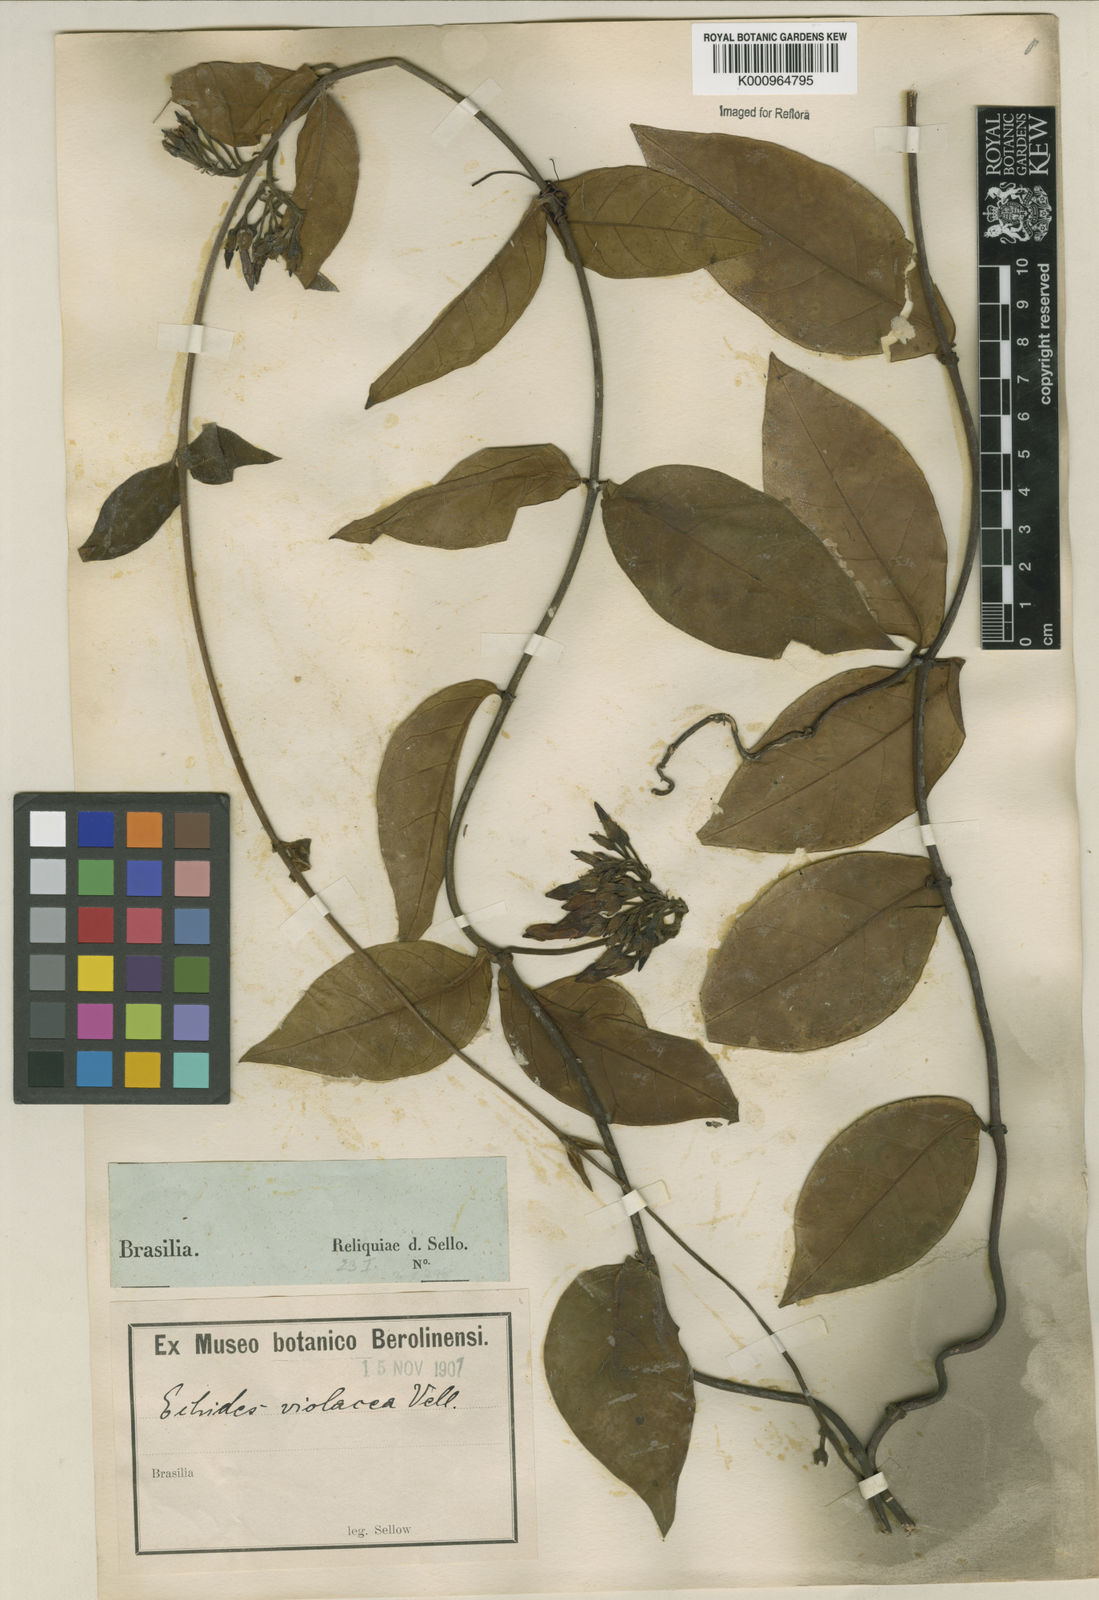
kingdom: Plantae
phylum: Tracheophyta
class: Magnoliopsida
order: Gentianales
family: Apocynaceae
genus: Temnadenia
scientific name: Temnadenia violacea
